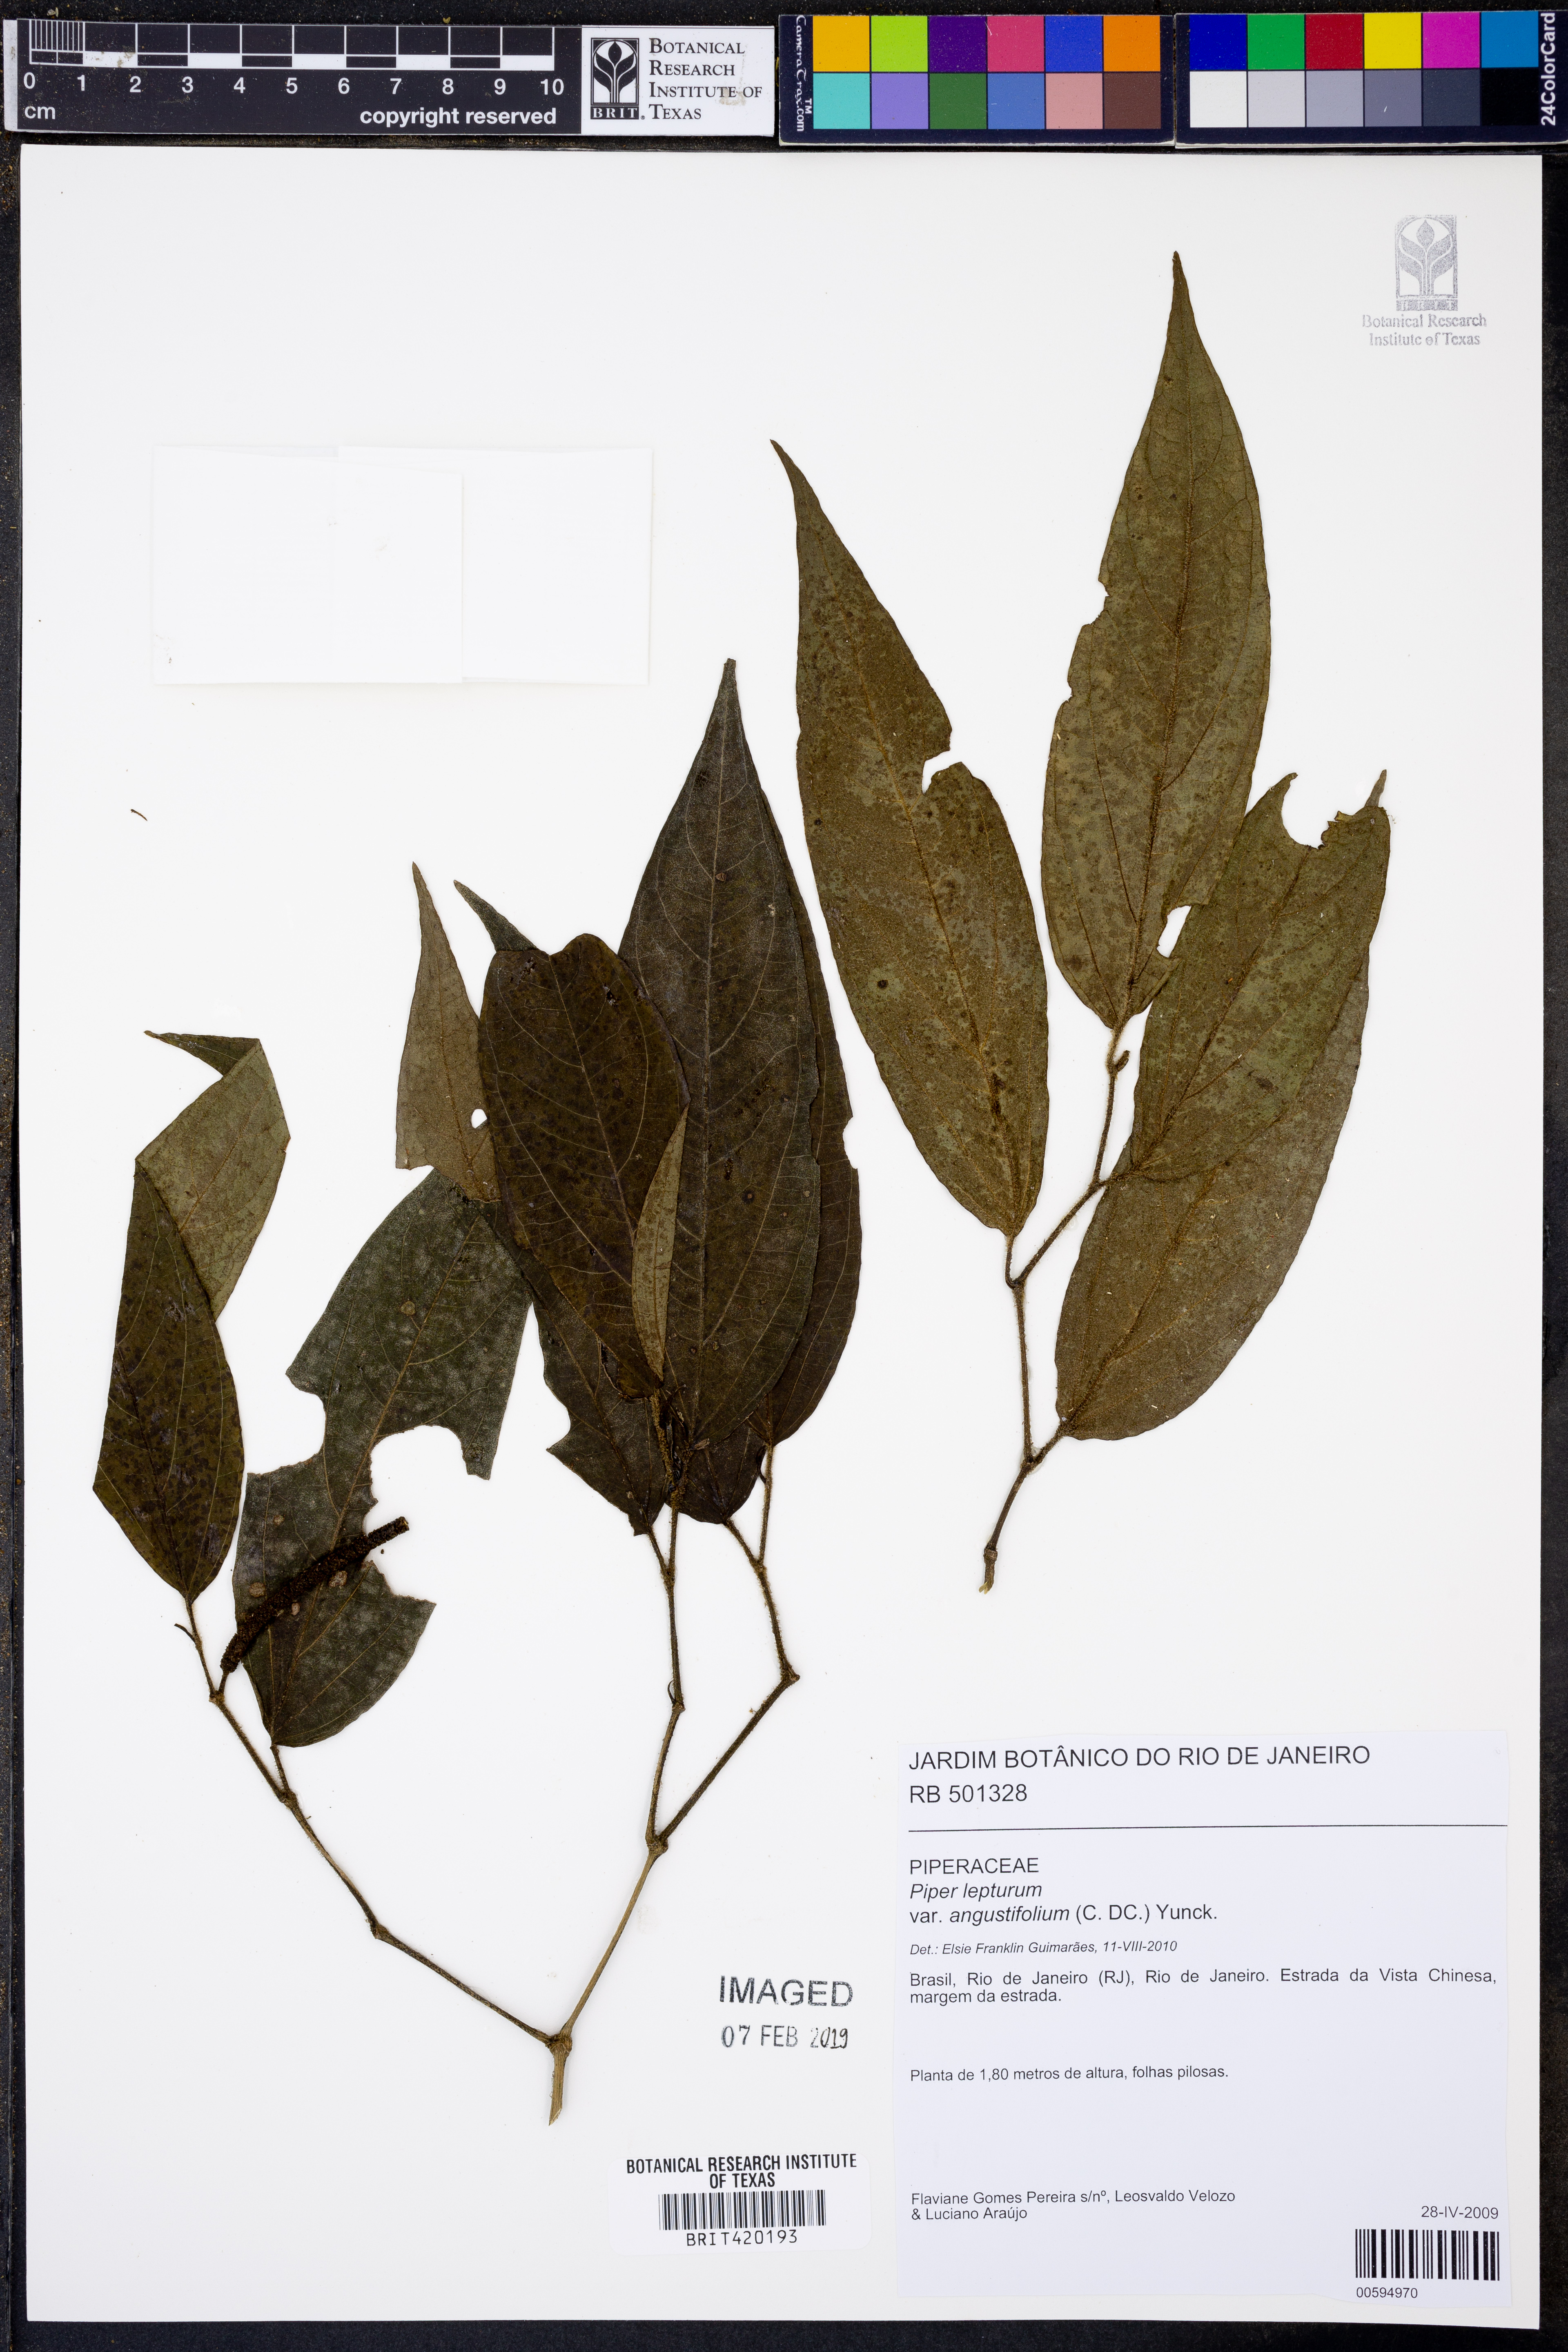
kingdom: Plantae
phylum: Tracheophyta
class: Magnoliopsida
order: Piperales
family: Piperaceae
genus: Piper
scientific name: Piper lepturum
